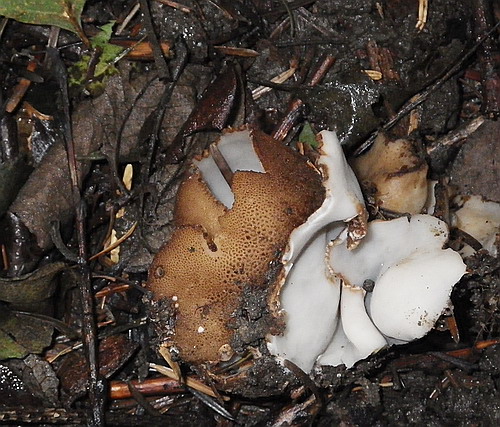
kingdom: Fungi
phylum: Ascomycota
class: Pezizomycetes
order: Pezizales
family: Pyronemataceae
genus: Geopora
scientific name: Geopora foliacea
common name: høst-jordbæger
